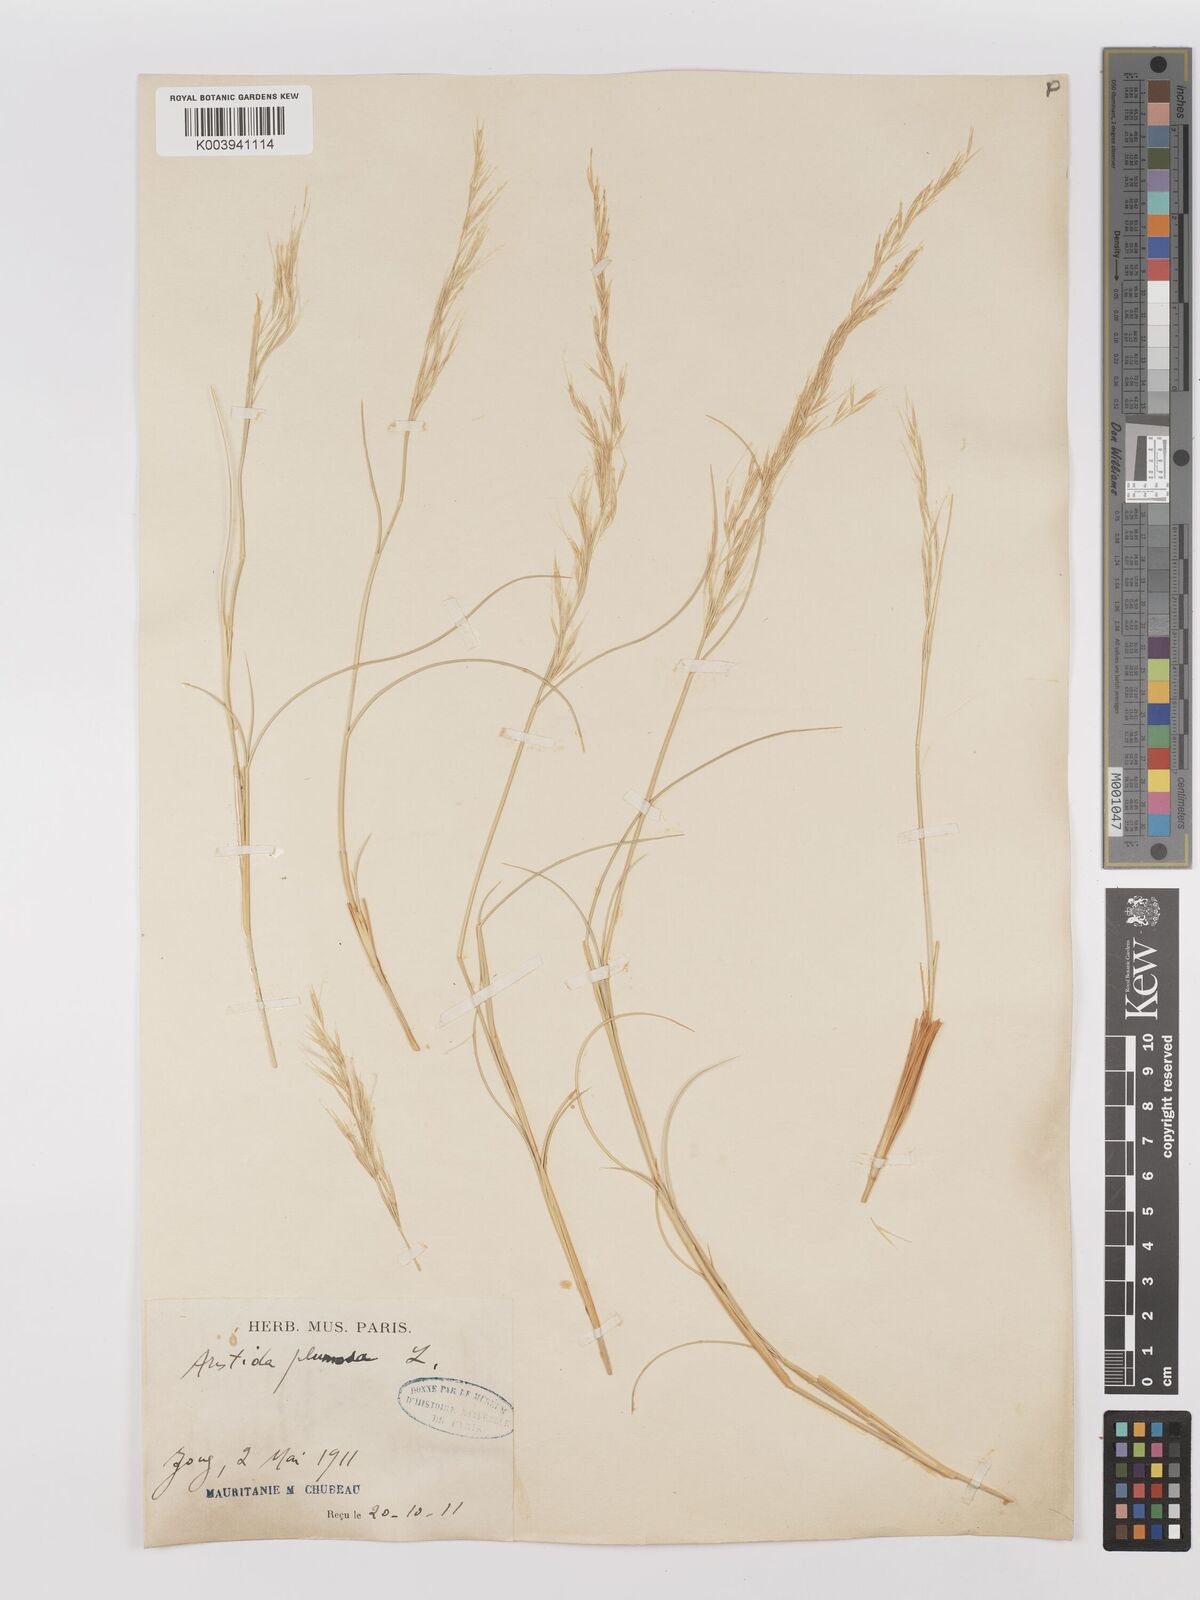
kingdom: Plantae
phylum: Tracheophyta
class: Liliopsida
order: Poales
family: Poaceae
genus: Stipagrostis
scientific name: Stipagrostis plumosa
